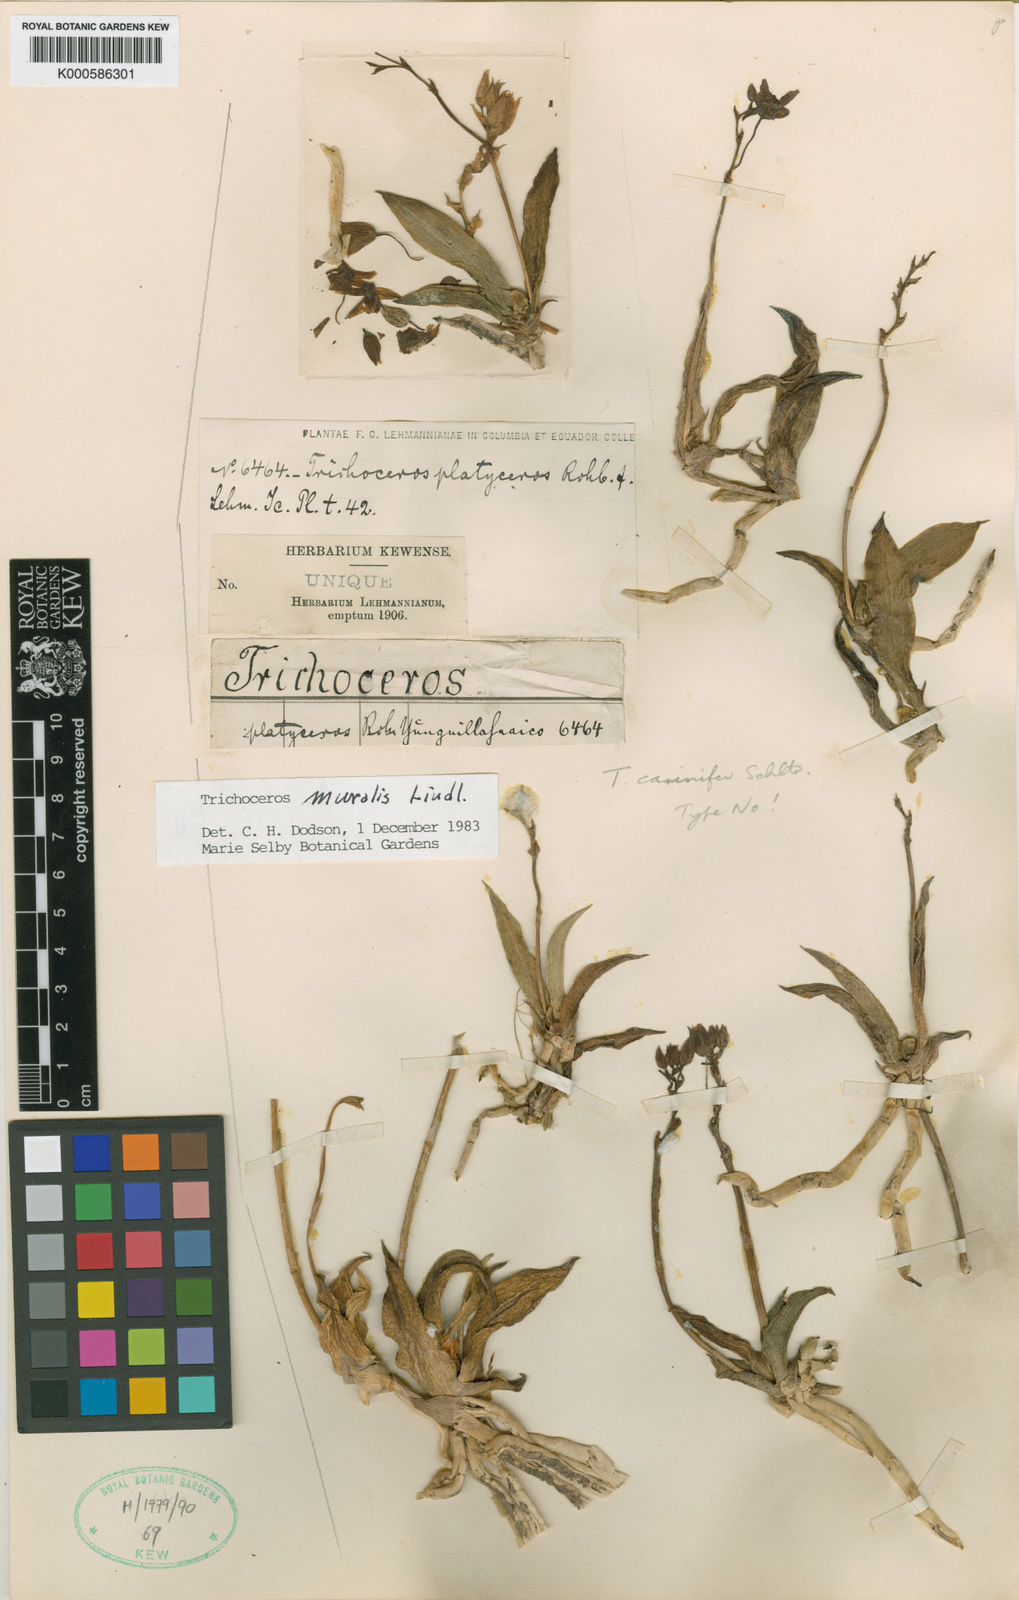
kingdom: Plantae
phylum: Tracheophyta
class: Liliopsida
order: Asparagales
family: Orchidaceae
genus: Trichoceros
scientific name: Trichoceros muralis
